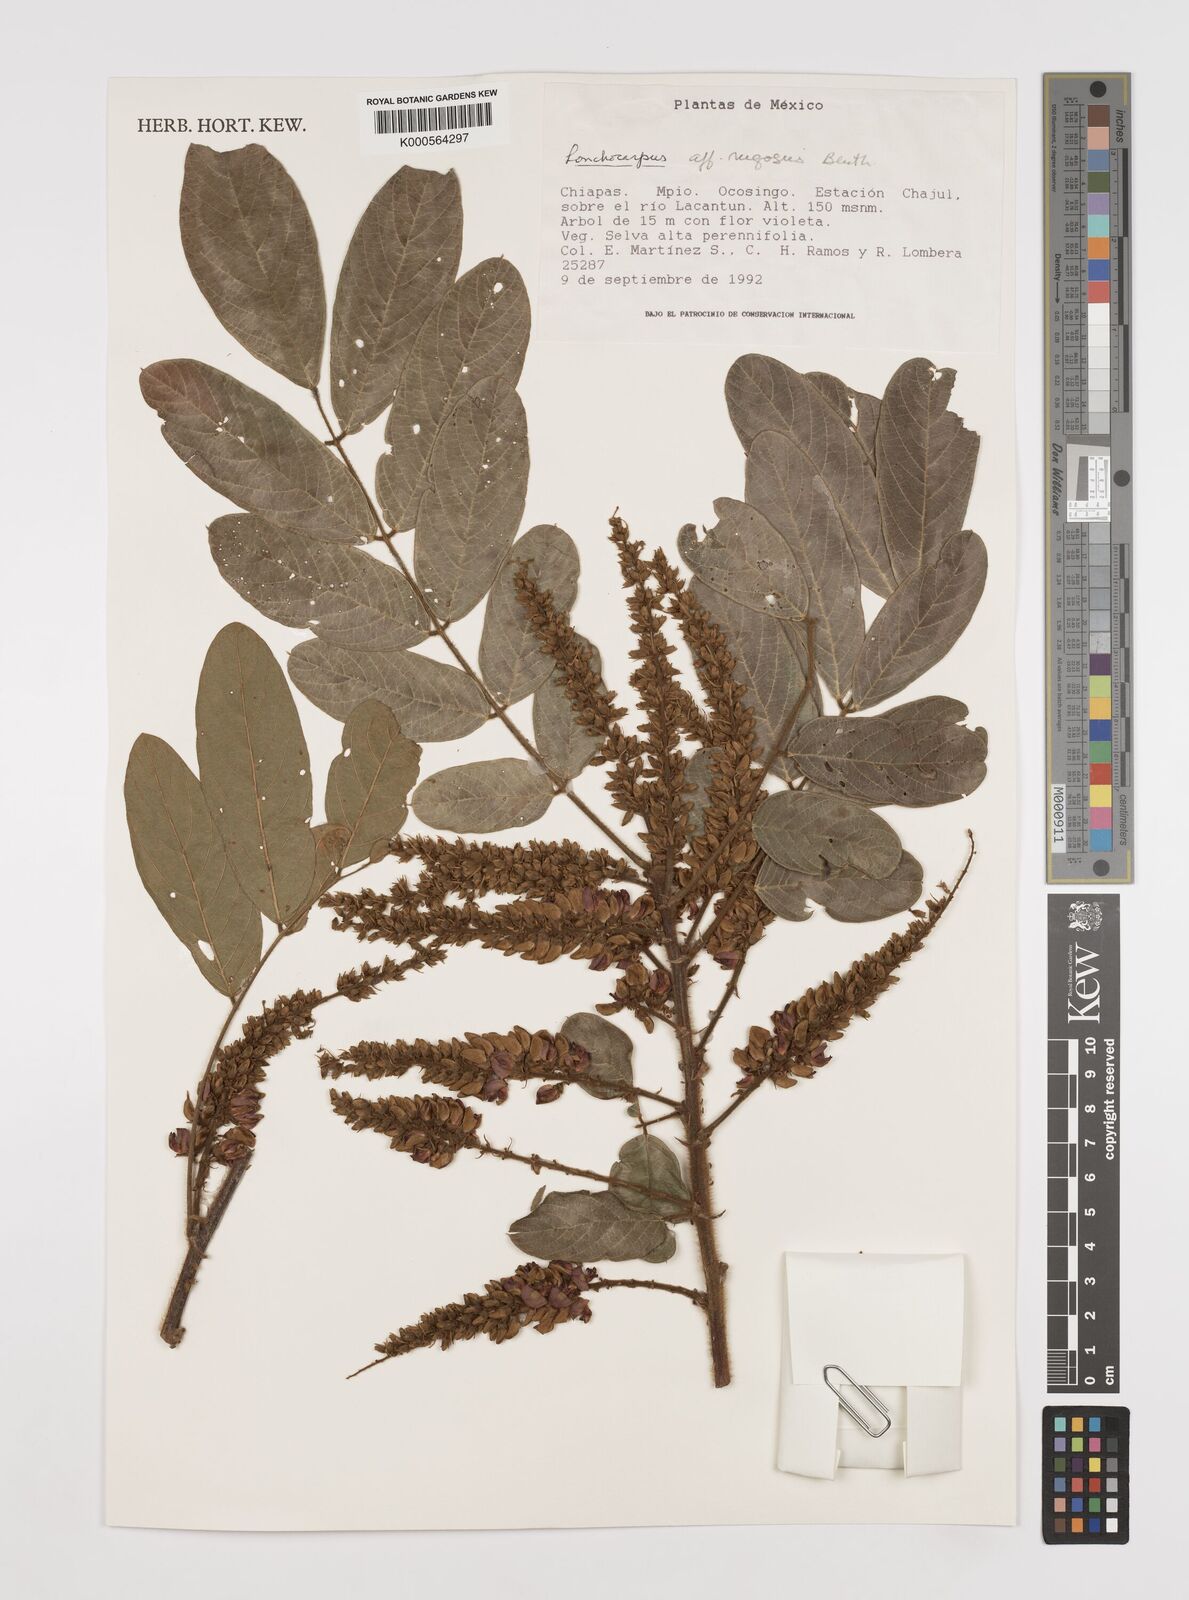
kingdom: Plantae
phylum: Tracheophyta
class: Magnoliopsida
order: Fabales
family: Fabaceae
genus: Lonchocarpus
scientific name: Lonchocarpus rugosus
